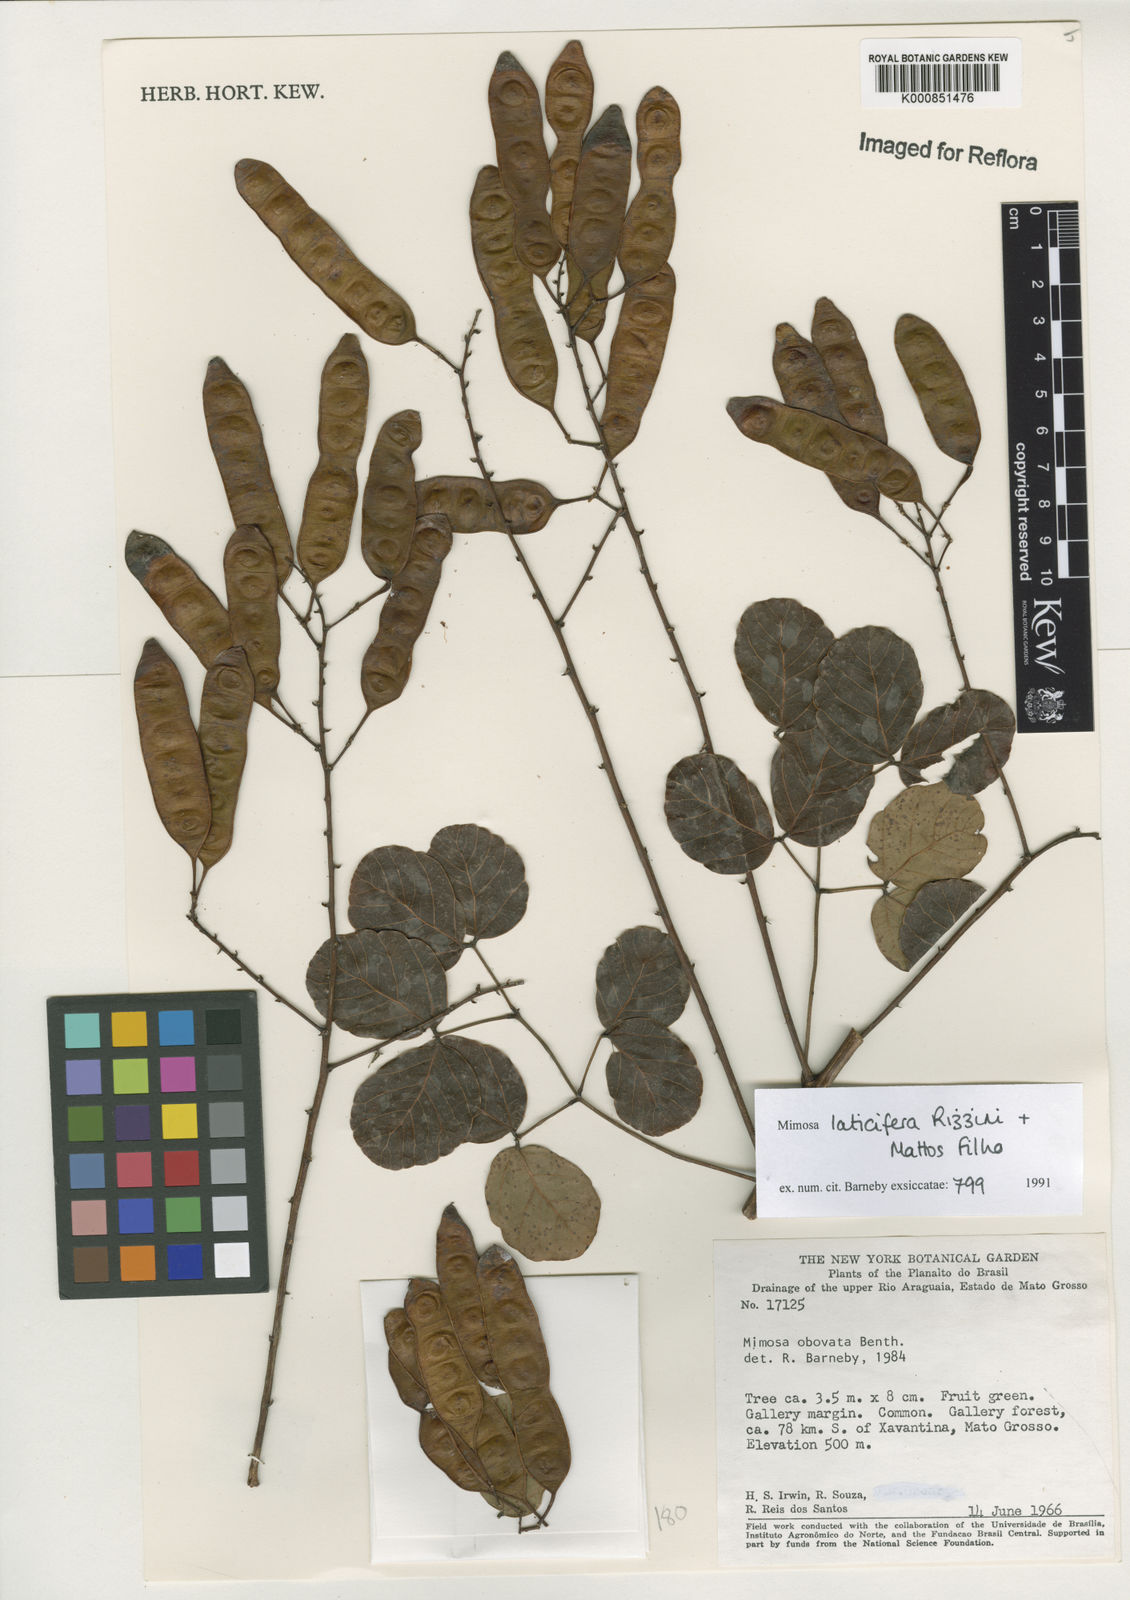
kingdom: Plantae
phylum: Tracheophyta
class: Magnoliopsida
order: Fabales
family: Fabaceae
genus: Mimosa
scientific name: Mimosa laticifera
